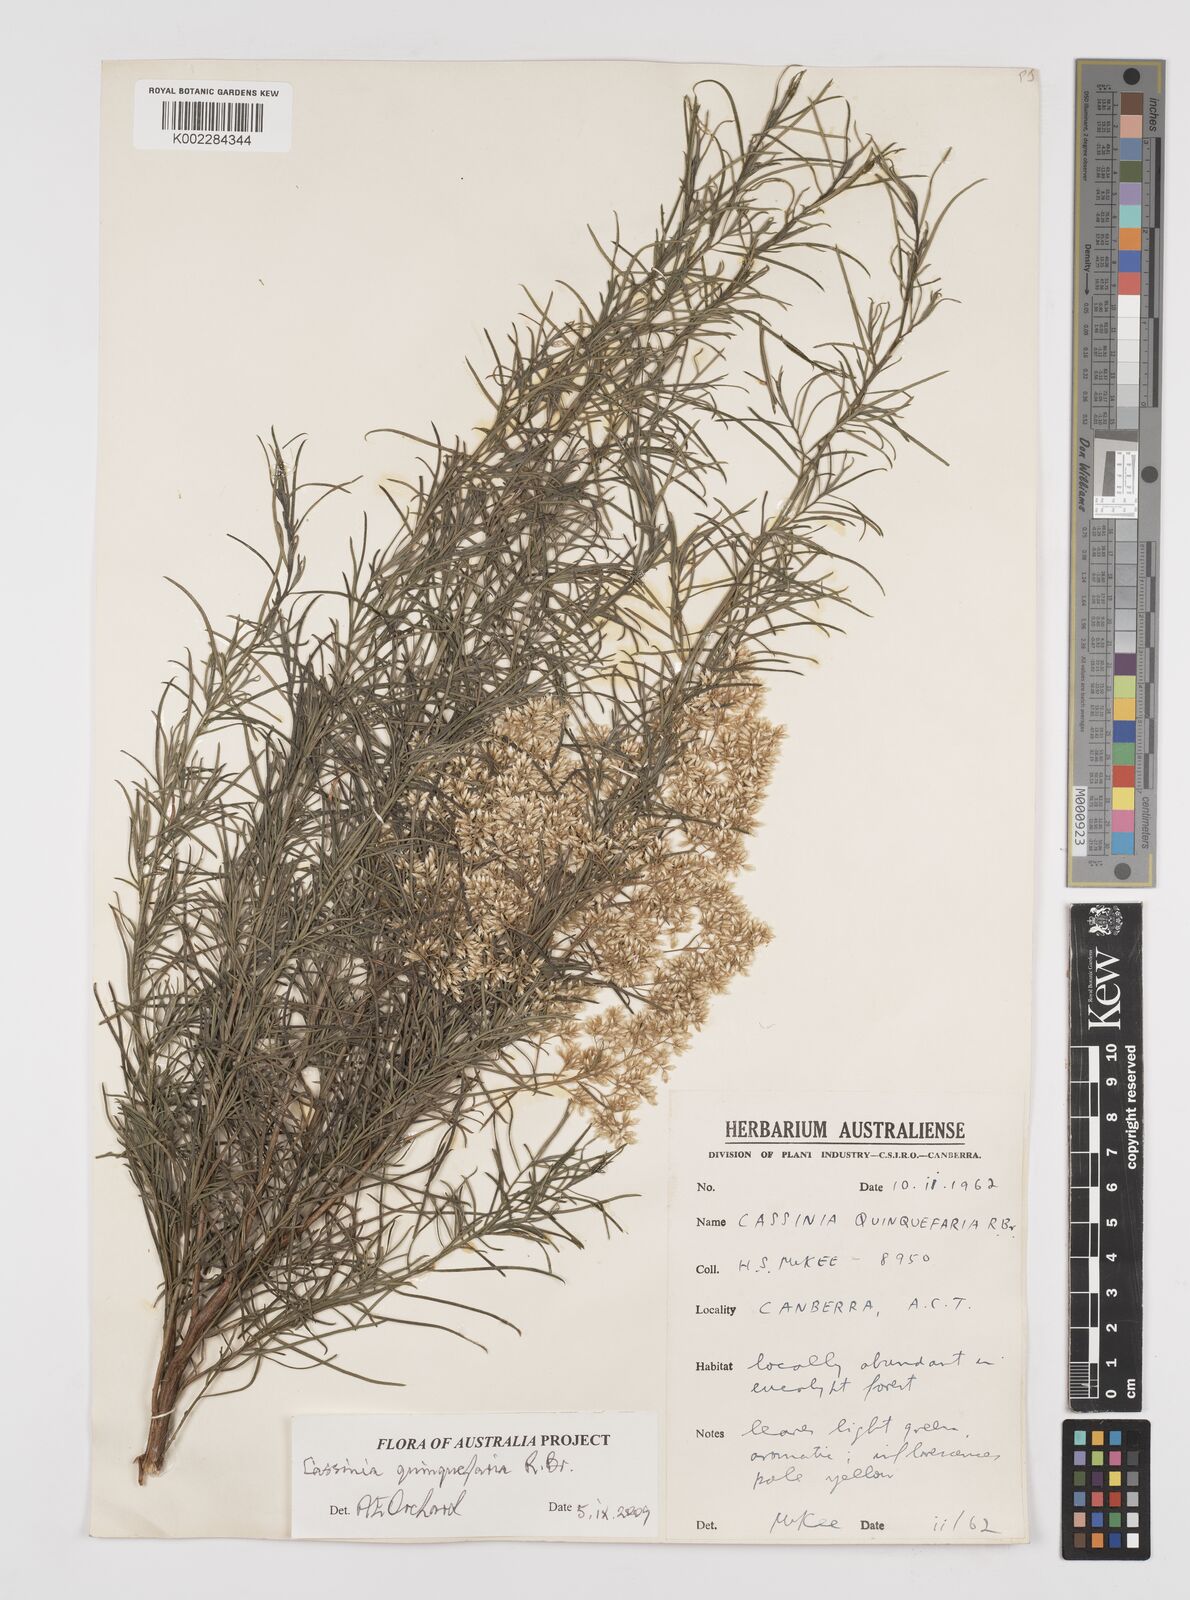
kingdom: Plantae
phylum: Tracheophyta
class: Magnoliopsida
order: Asterales
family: Asteraceae
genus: Cassinia
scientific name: Cassinia quinquefaria
